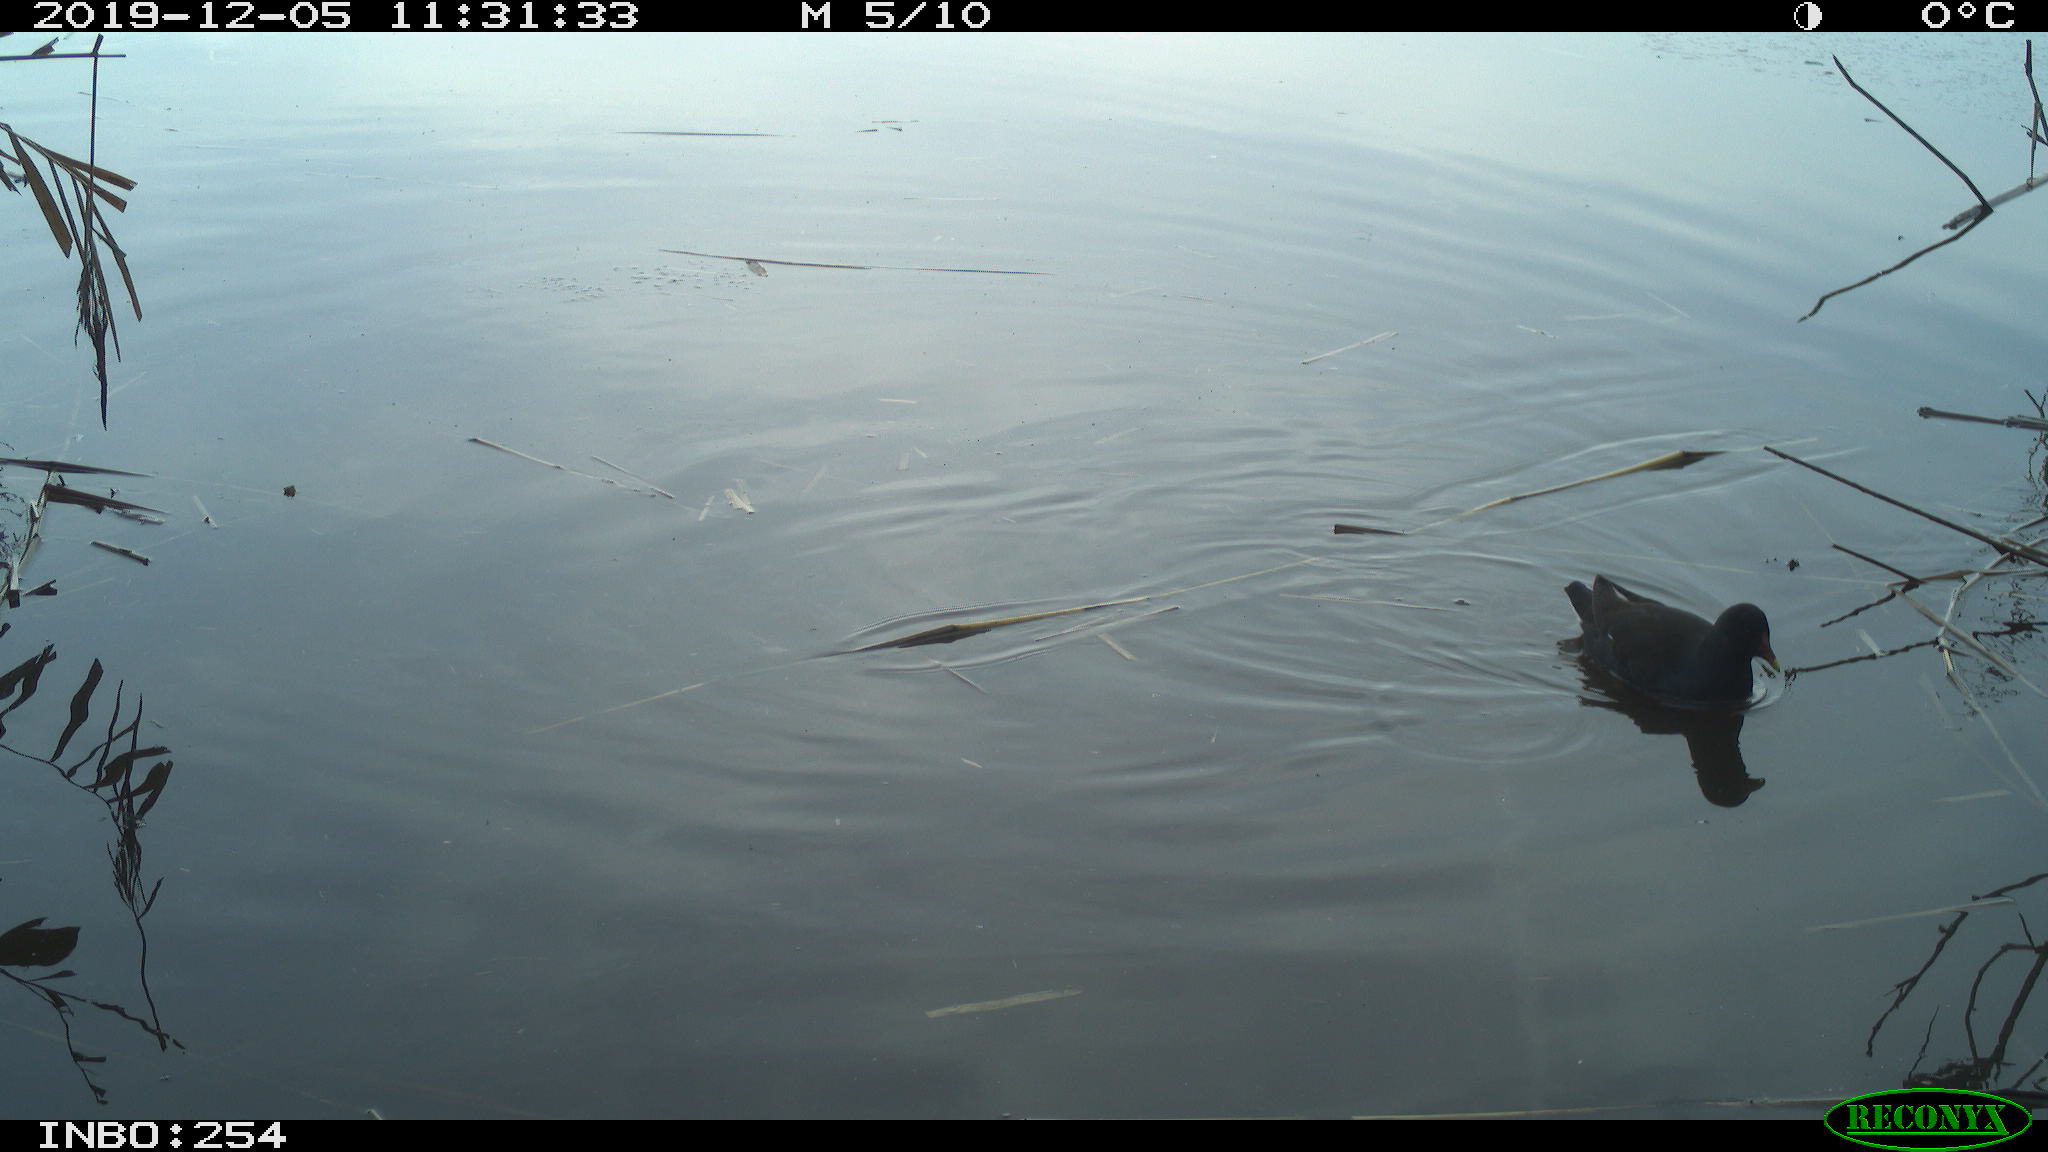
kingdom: Animalia
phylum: Chordata
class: Aves
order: Gruiformes
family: Rallidae
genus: Gallinula
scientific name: Gallinula chloropus
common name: Common moorhen
